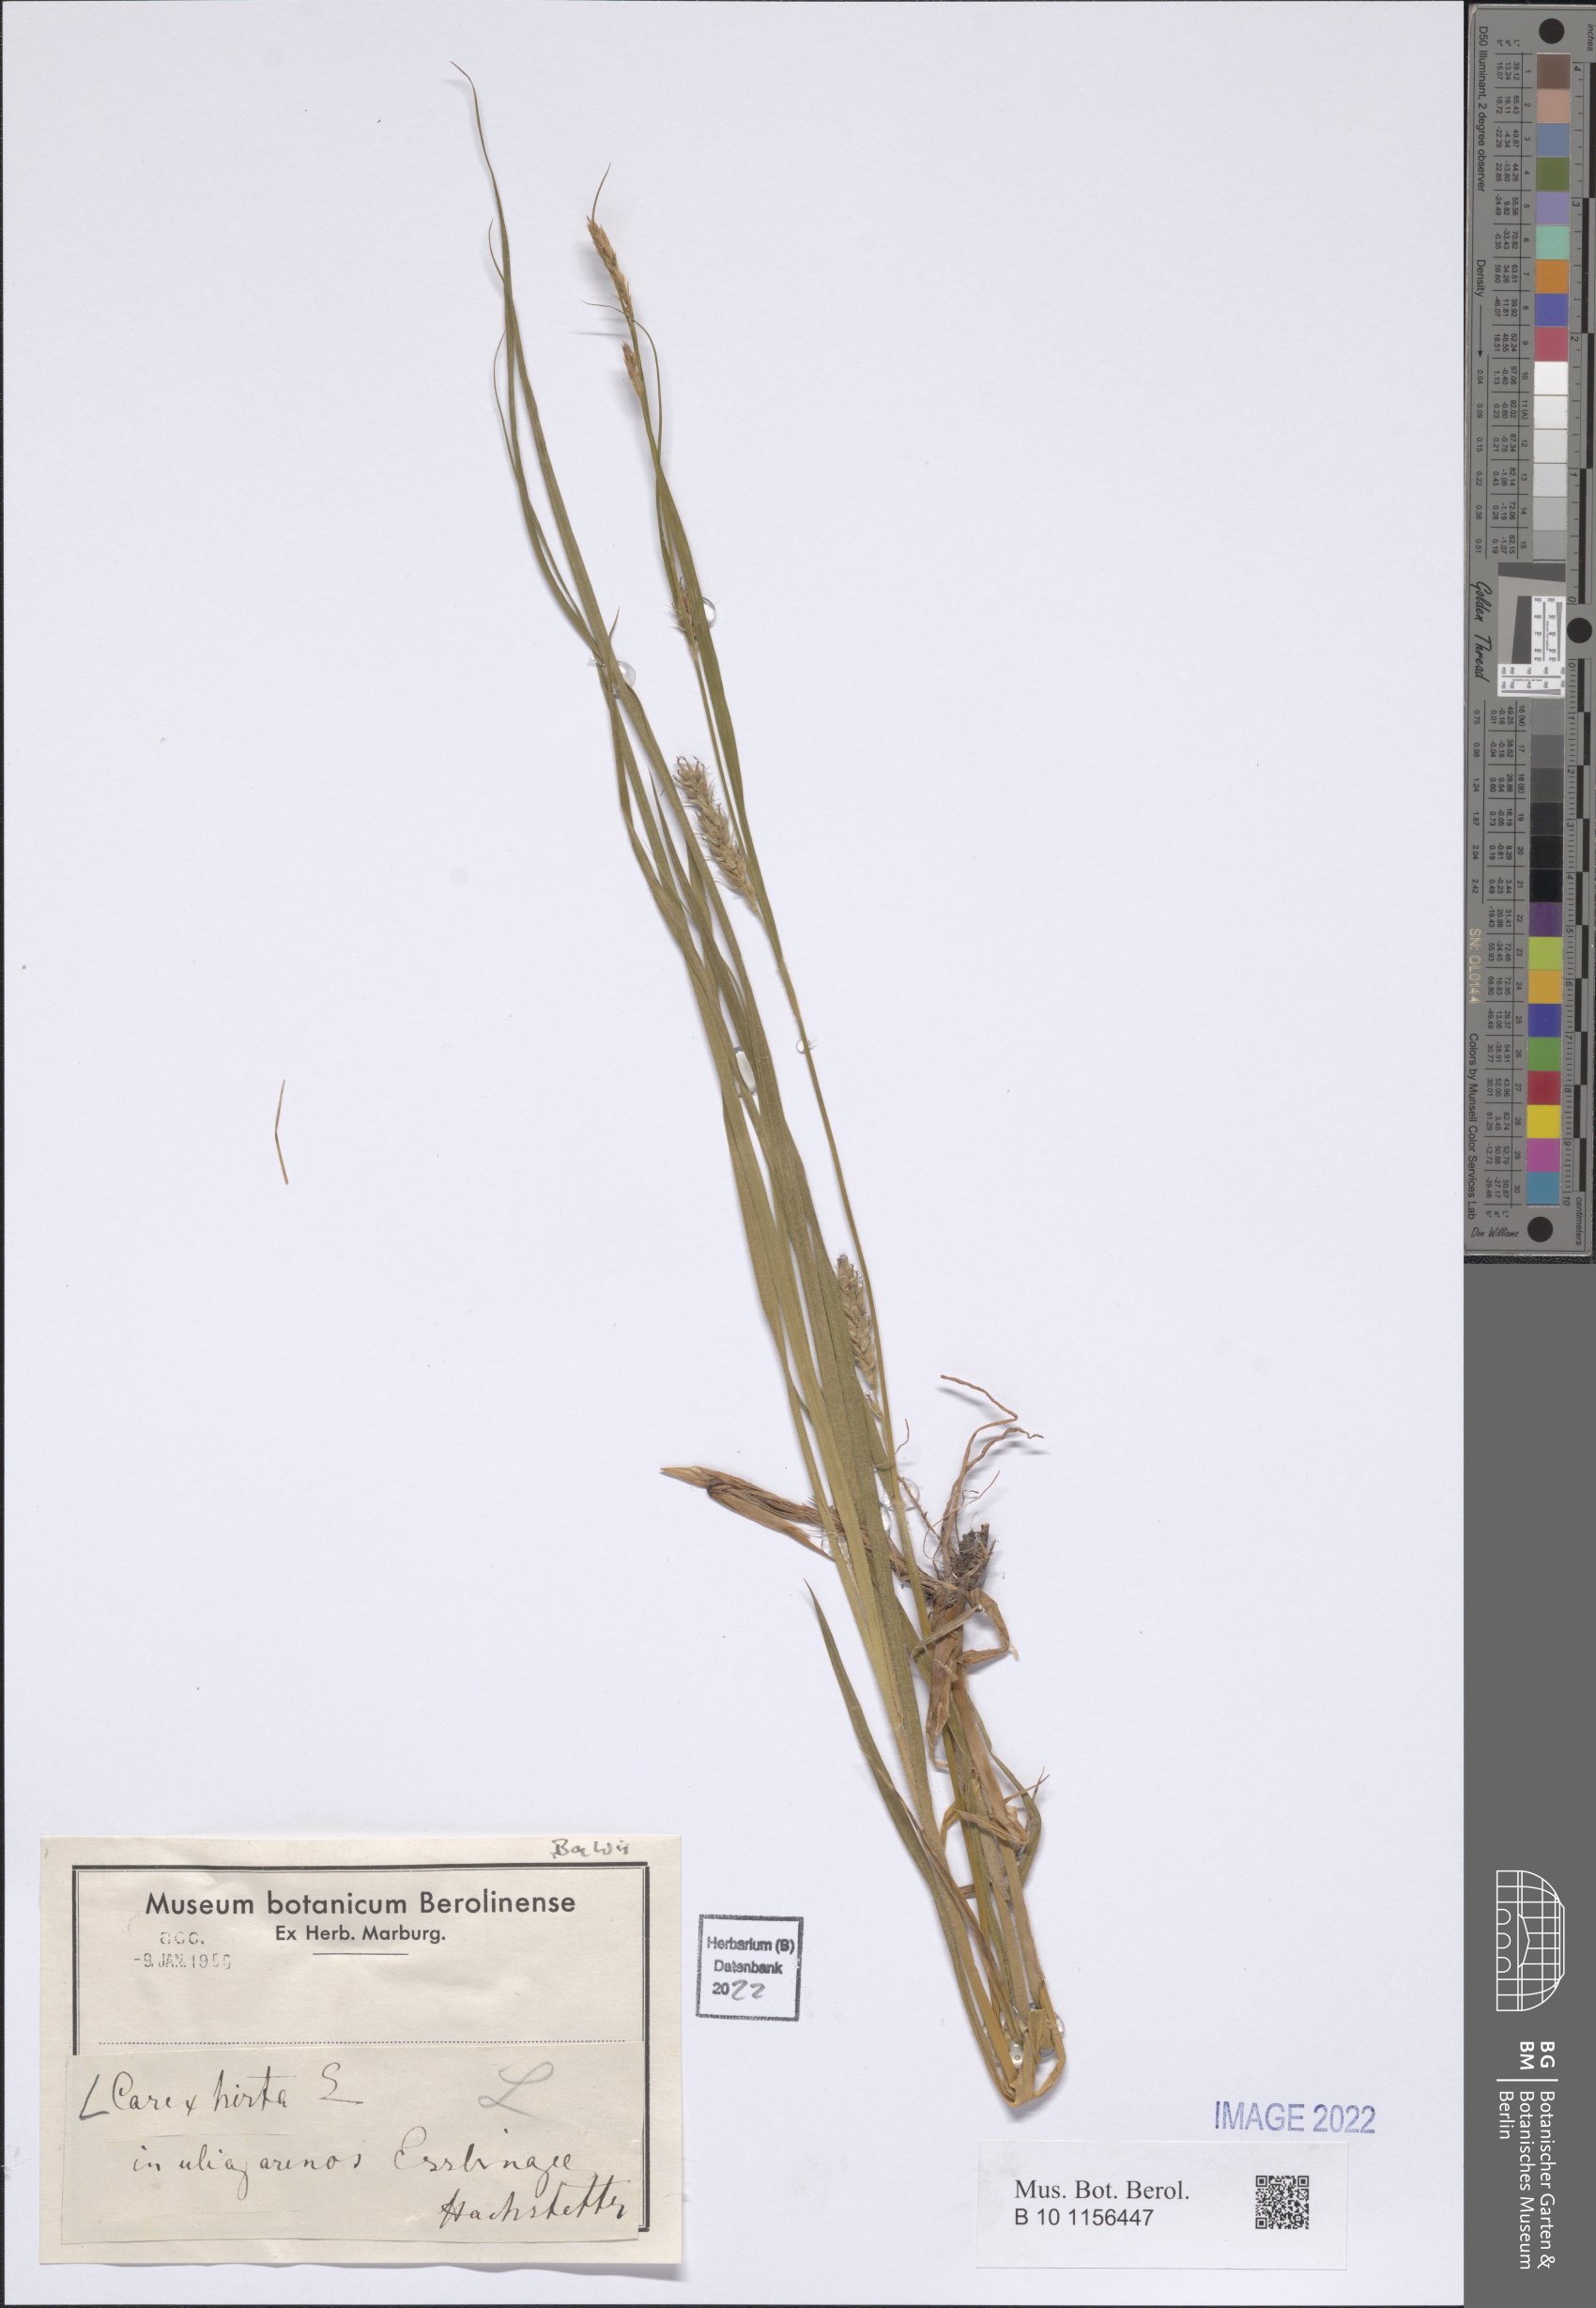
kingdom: Plantae
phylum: Tracheophyta
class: Liliopsida
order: Poales
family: Cyperaceae
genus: Carex
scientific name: Carex hirta
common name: Hairy sedge
